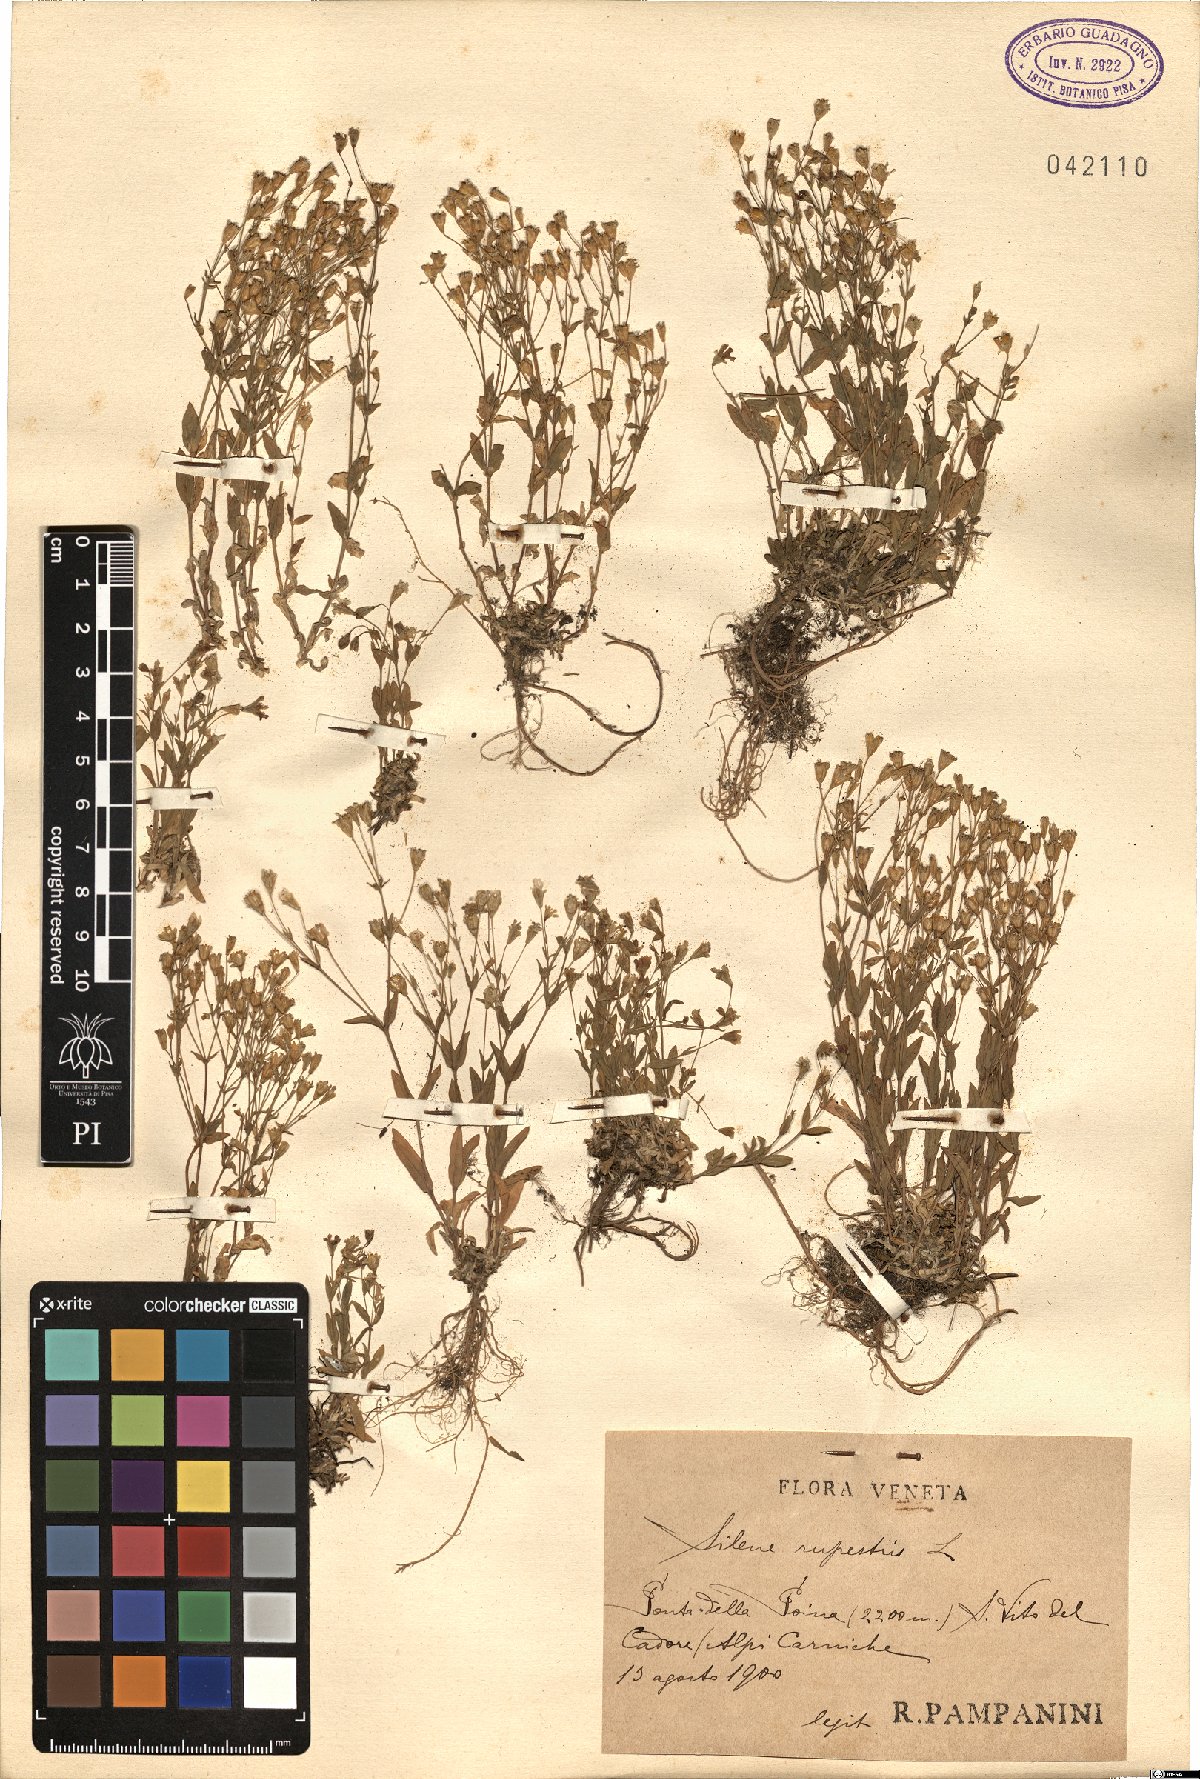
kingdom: Plantae
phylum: Tracheophyta
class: Magnoliopsida
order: Caryophyllales
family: Caryophyllaceae
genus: Atocion
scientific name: Atocion rupestre
